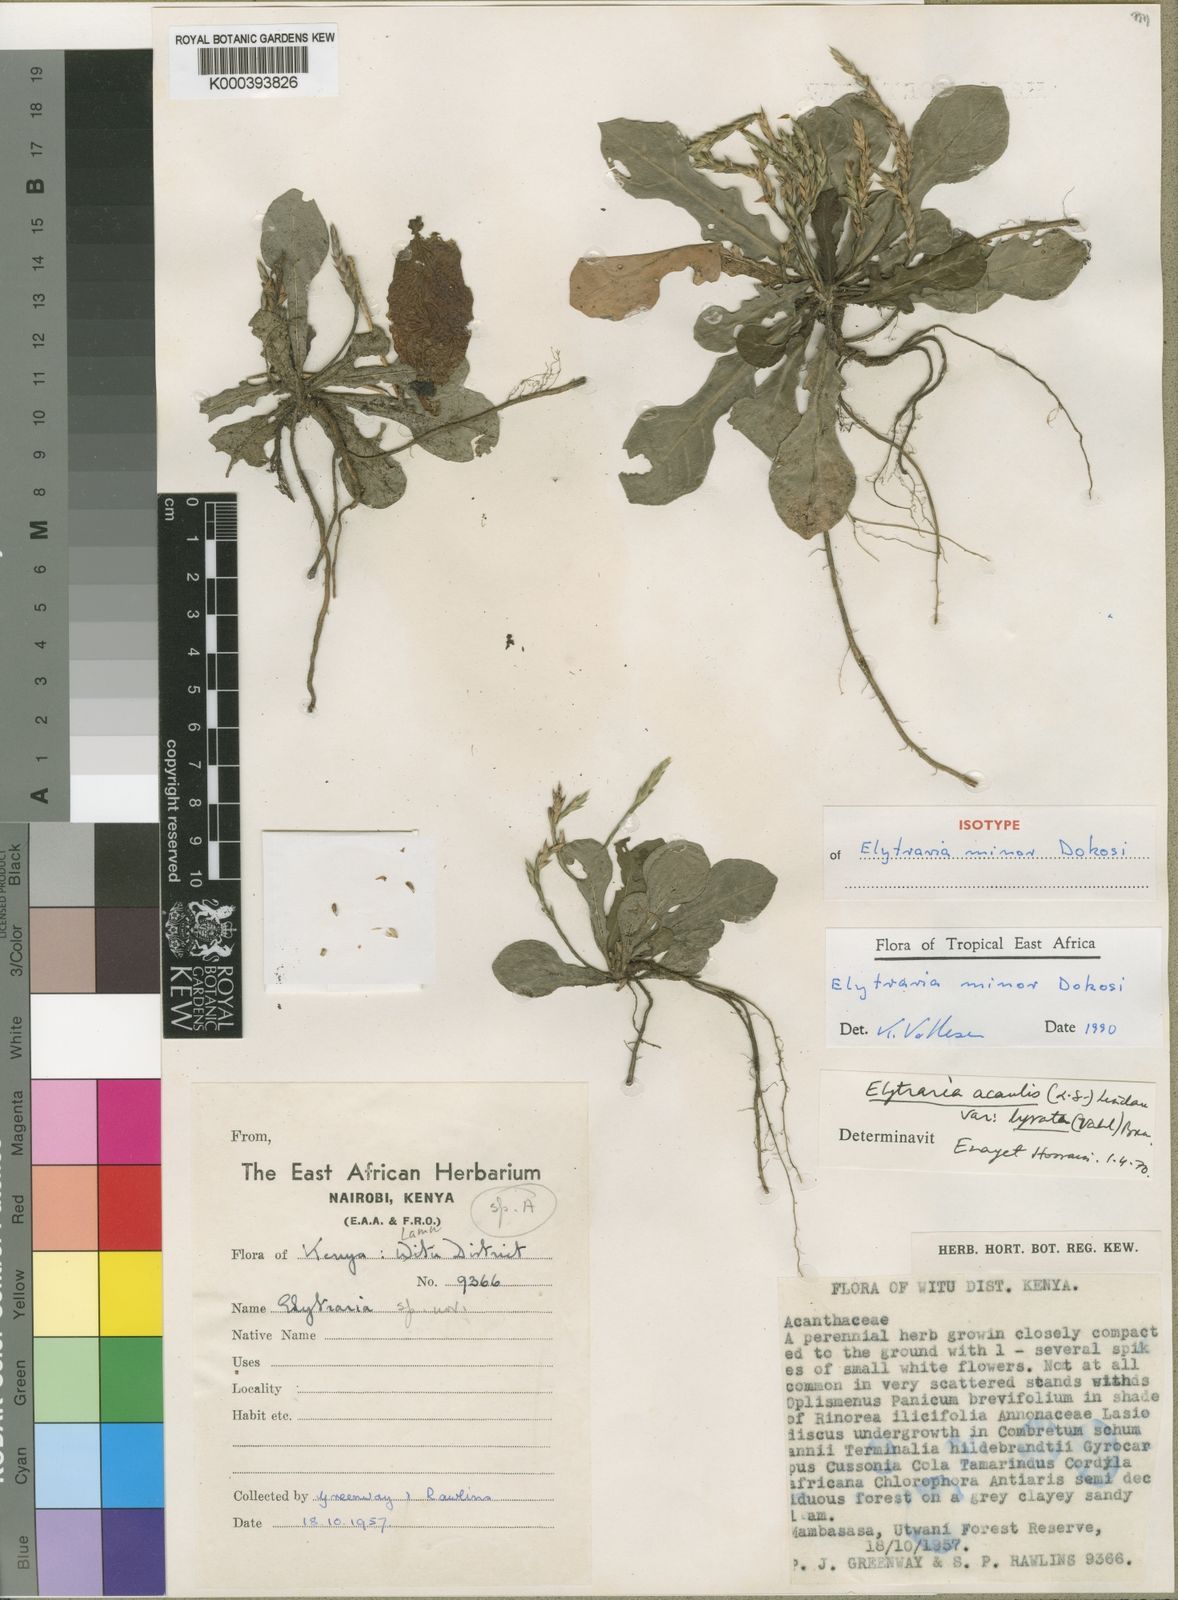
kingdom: Plantae
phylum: Tracheophyta
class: Magnoliopsida
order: Lamiales
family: Acanthaceae
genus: Elytraria
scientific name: Elytraria minor
